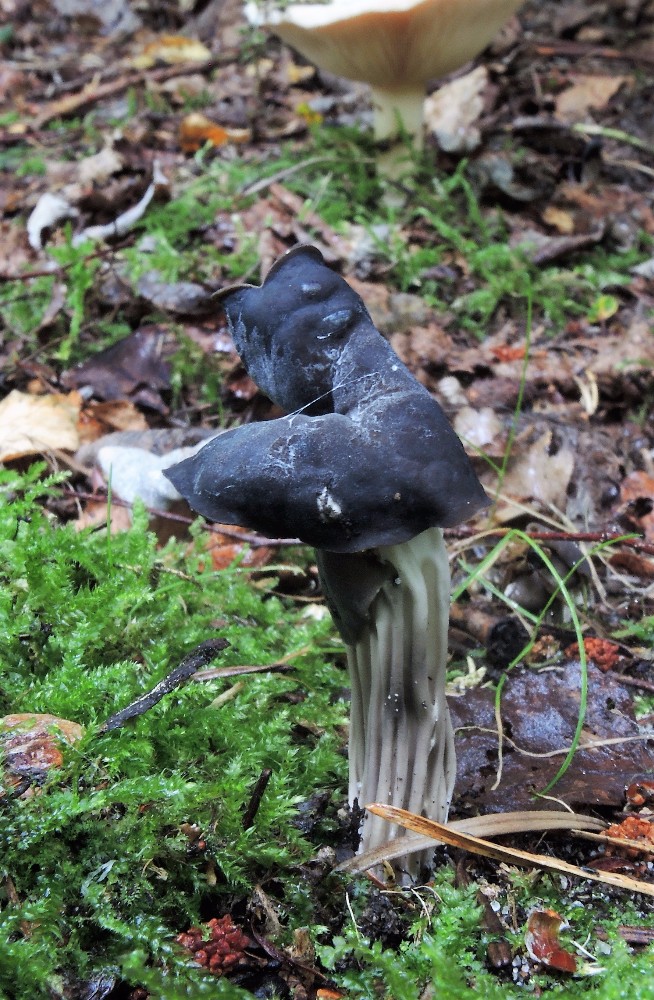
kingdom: Fungi
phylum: Ascomycota
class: Pezizomycetes
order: Pezizales
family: Helvellaceae
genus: Helvella
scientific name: Helvella lacunosa
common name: grubet foldhat
